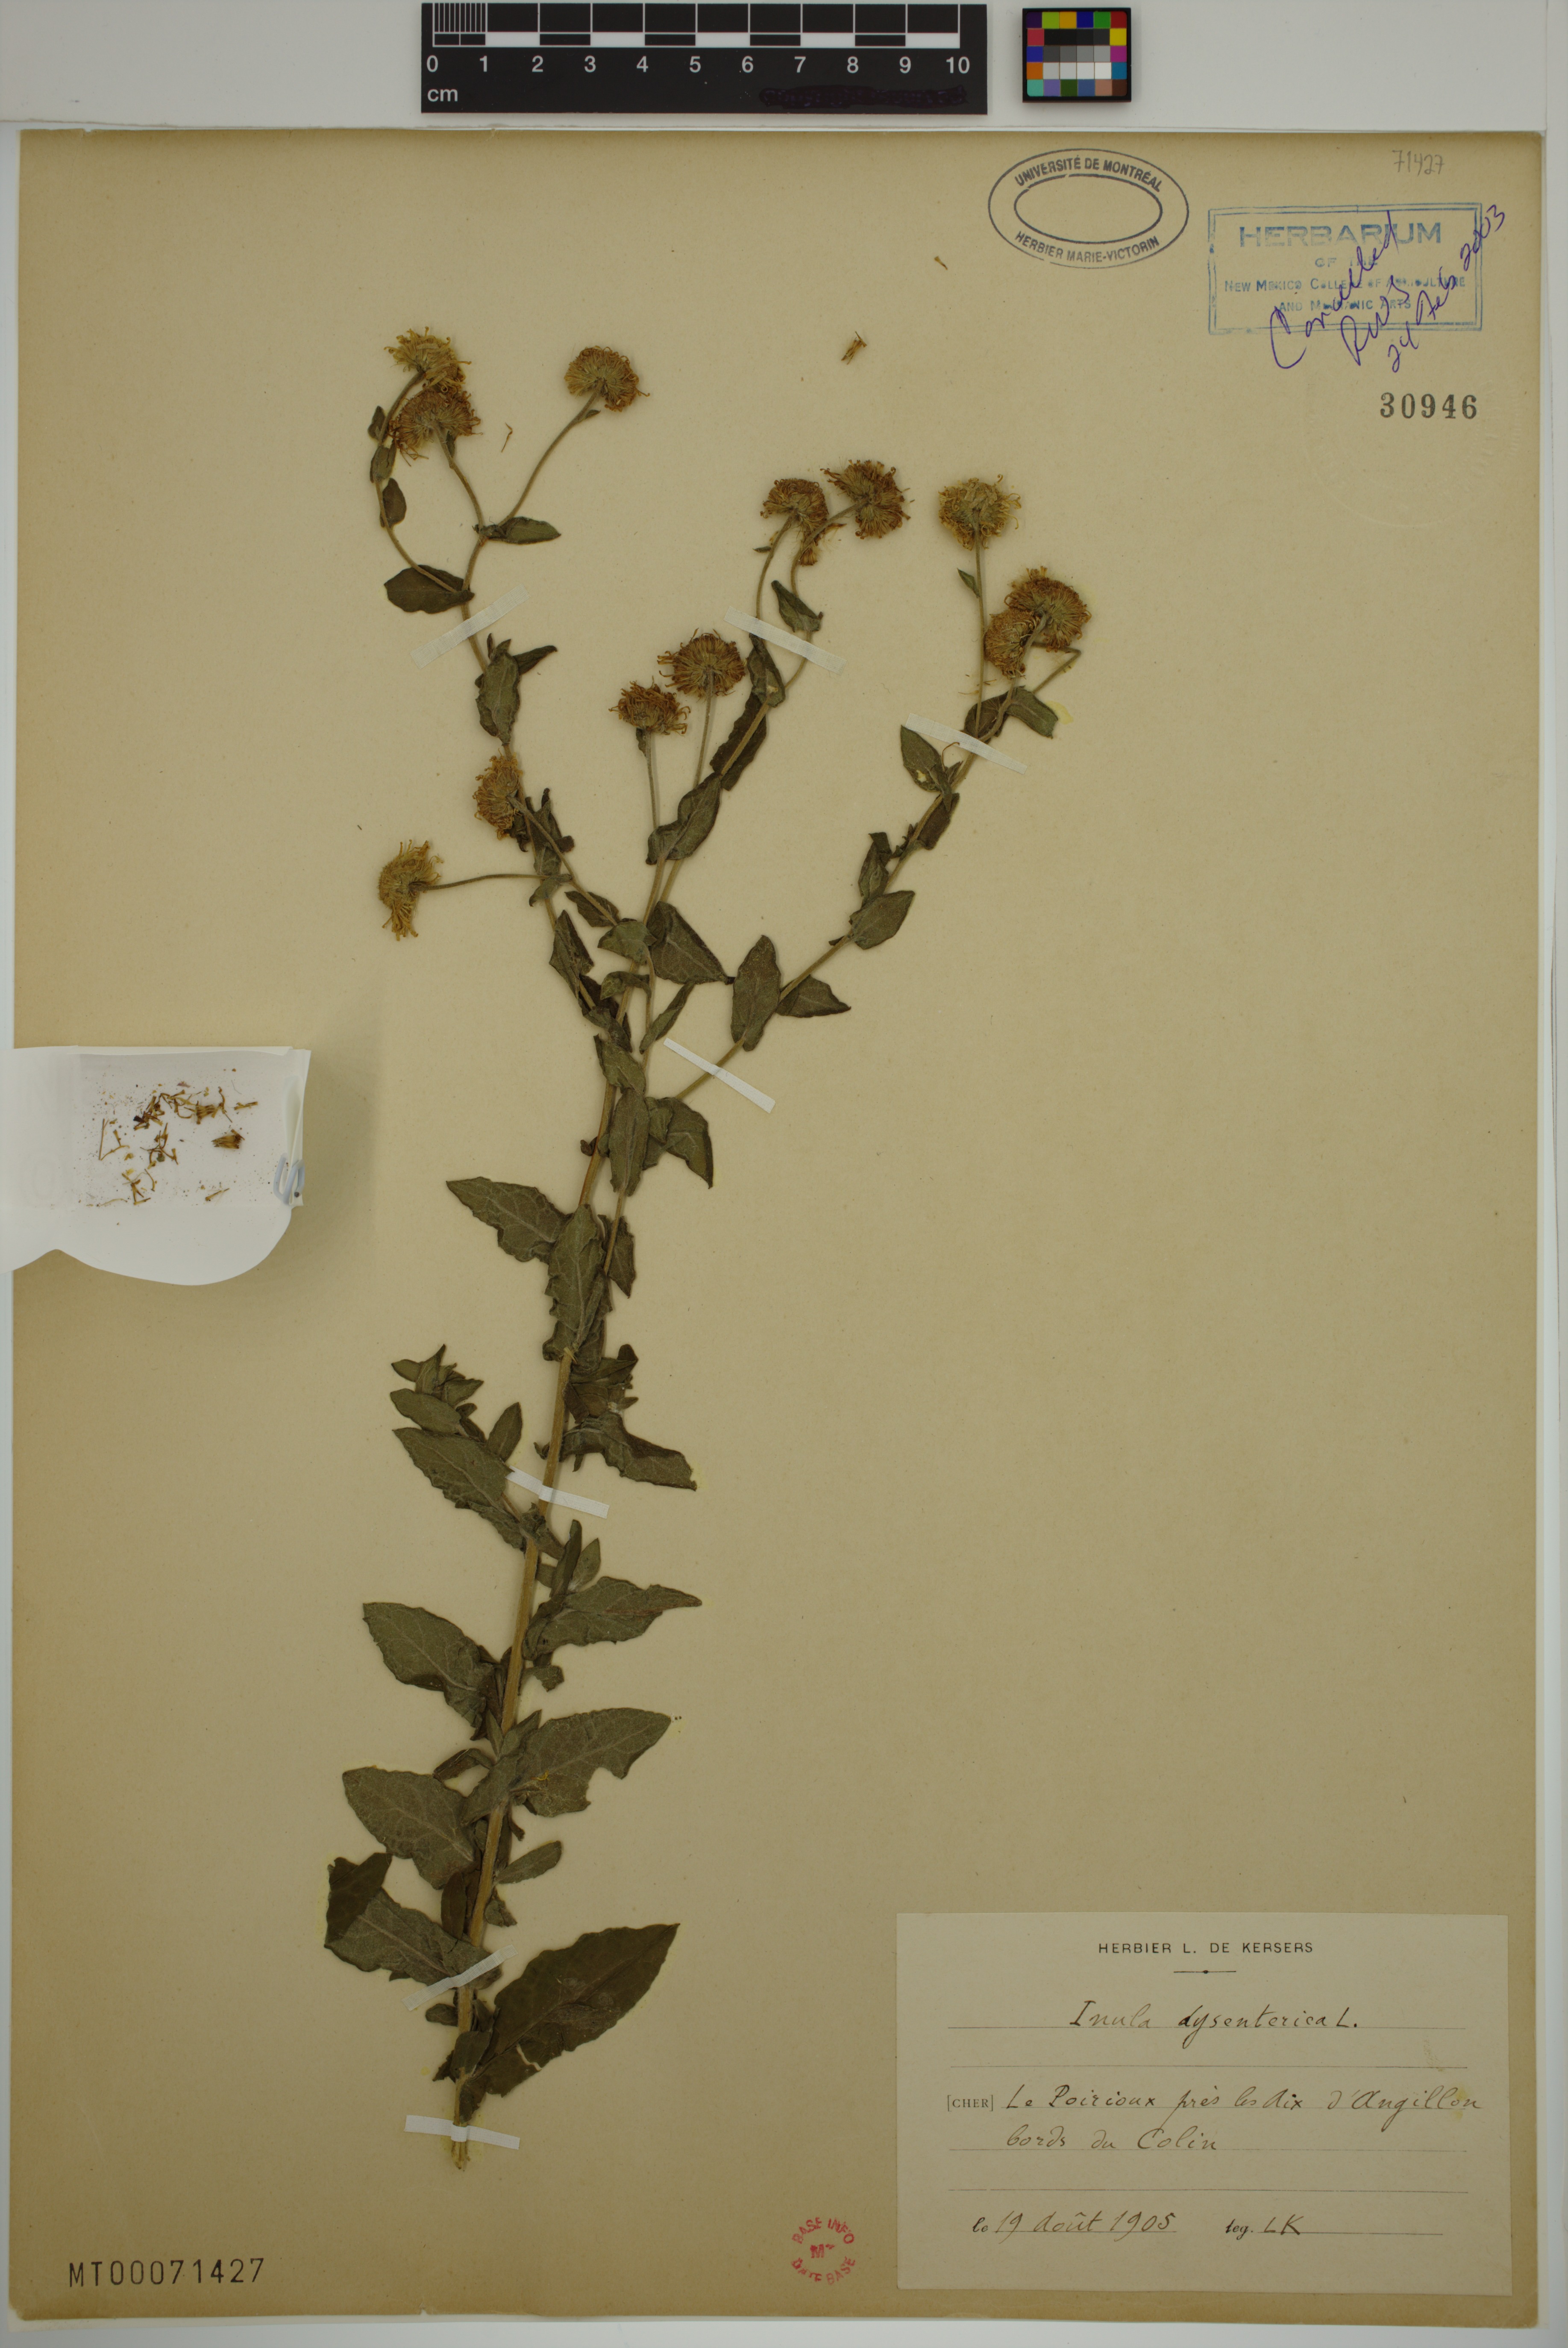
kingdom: Plantae
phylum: Tracheophyta
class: Magnoliopsida
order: Asterales
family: Asteraceae
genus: Pulicaria
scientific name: Pulicaria dysenterica
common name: Common fleabane
